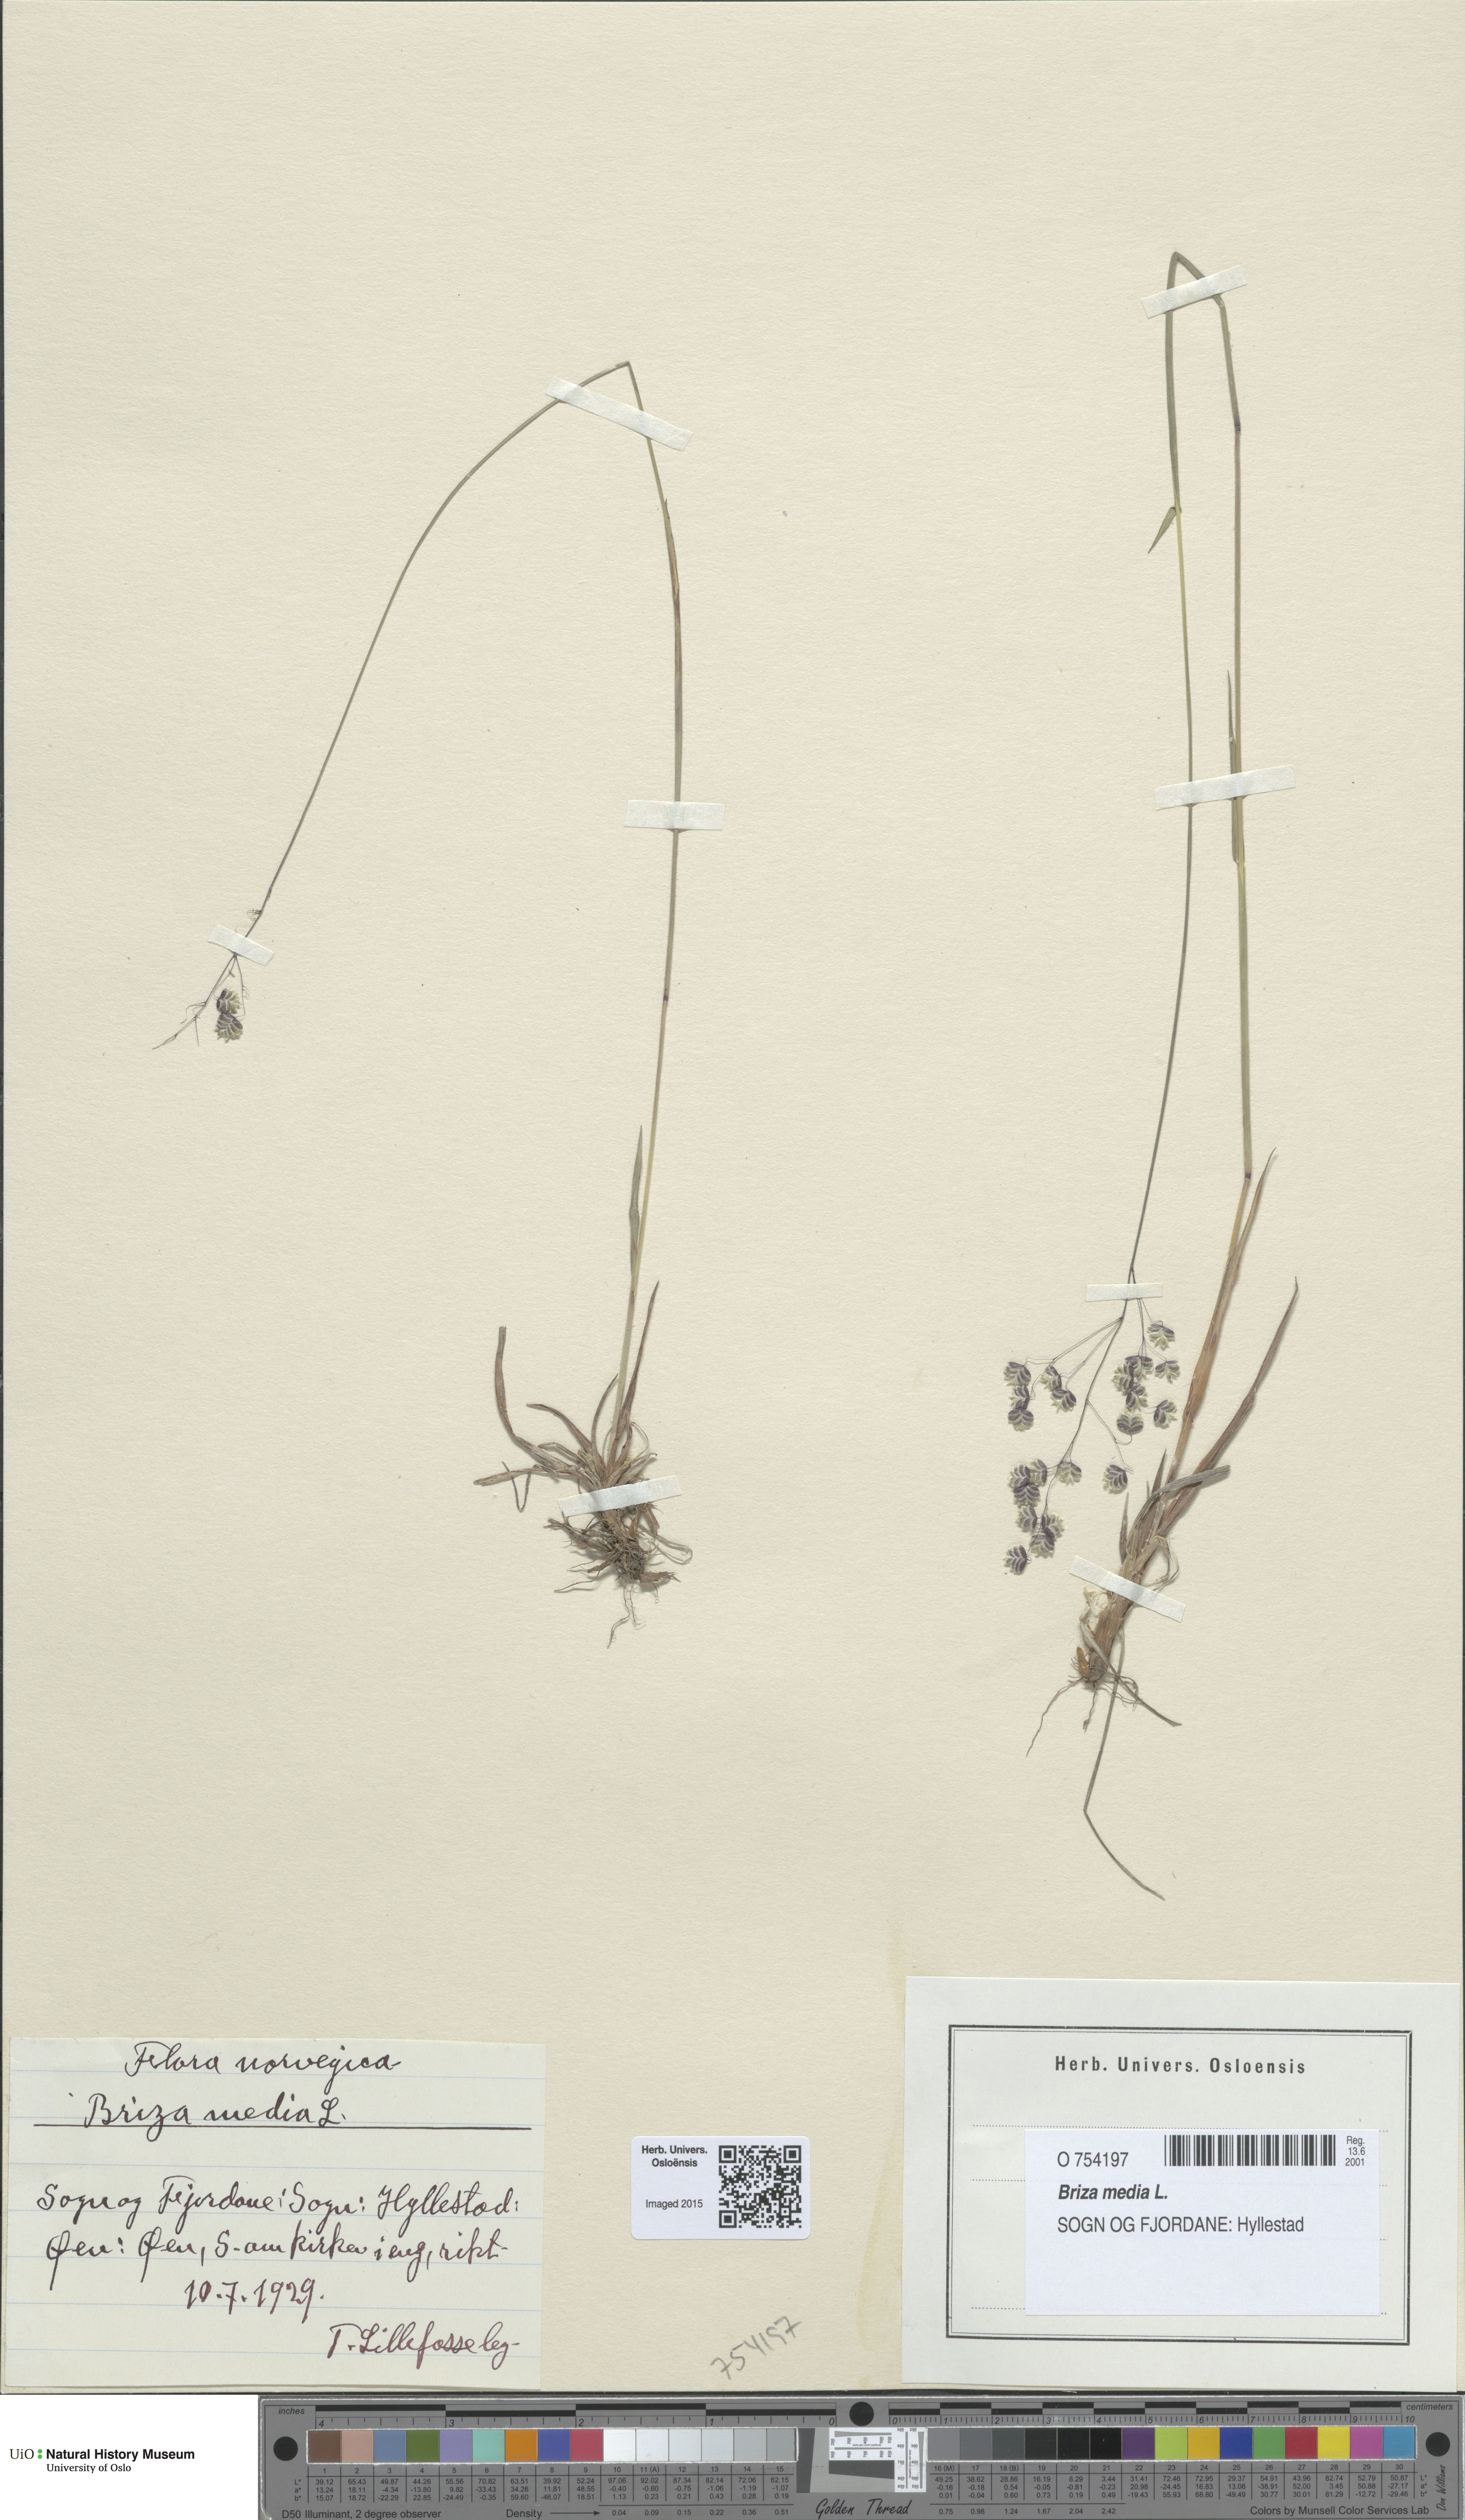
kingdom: Plantae
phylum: Tracheophyta
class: Liliopsida
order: Poales
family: Poaceae
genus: Briza
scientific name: Briza media
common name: Quaking grass
